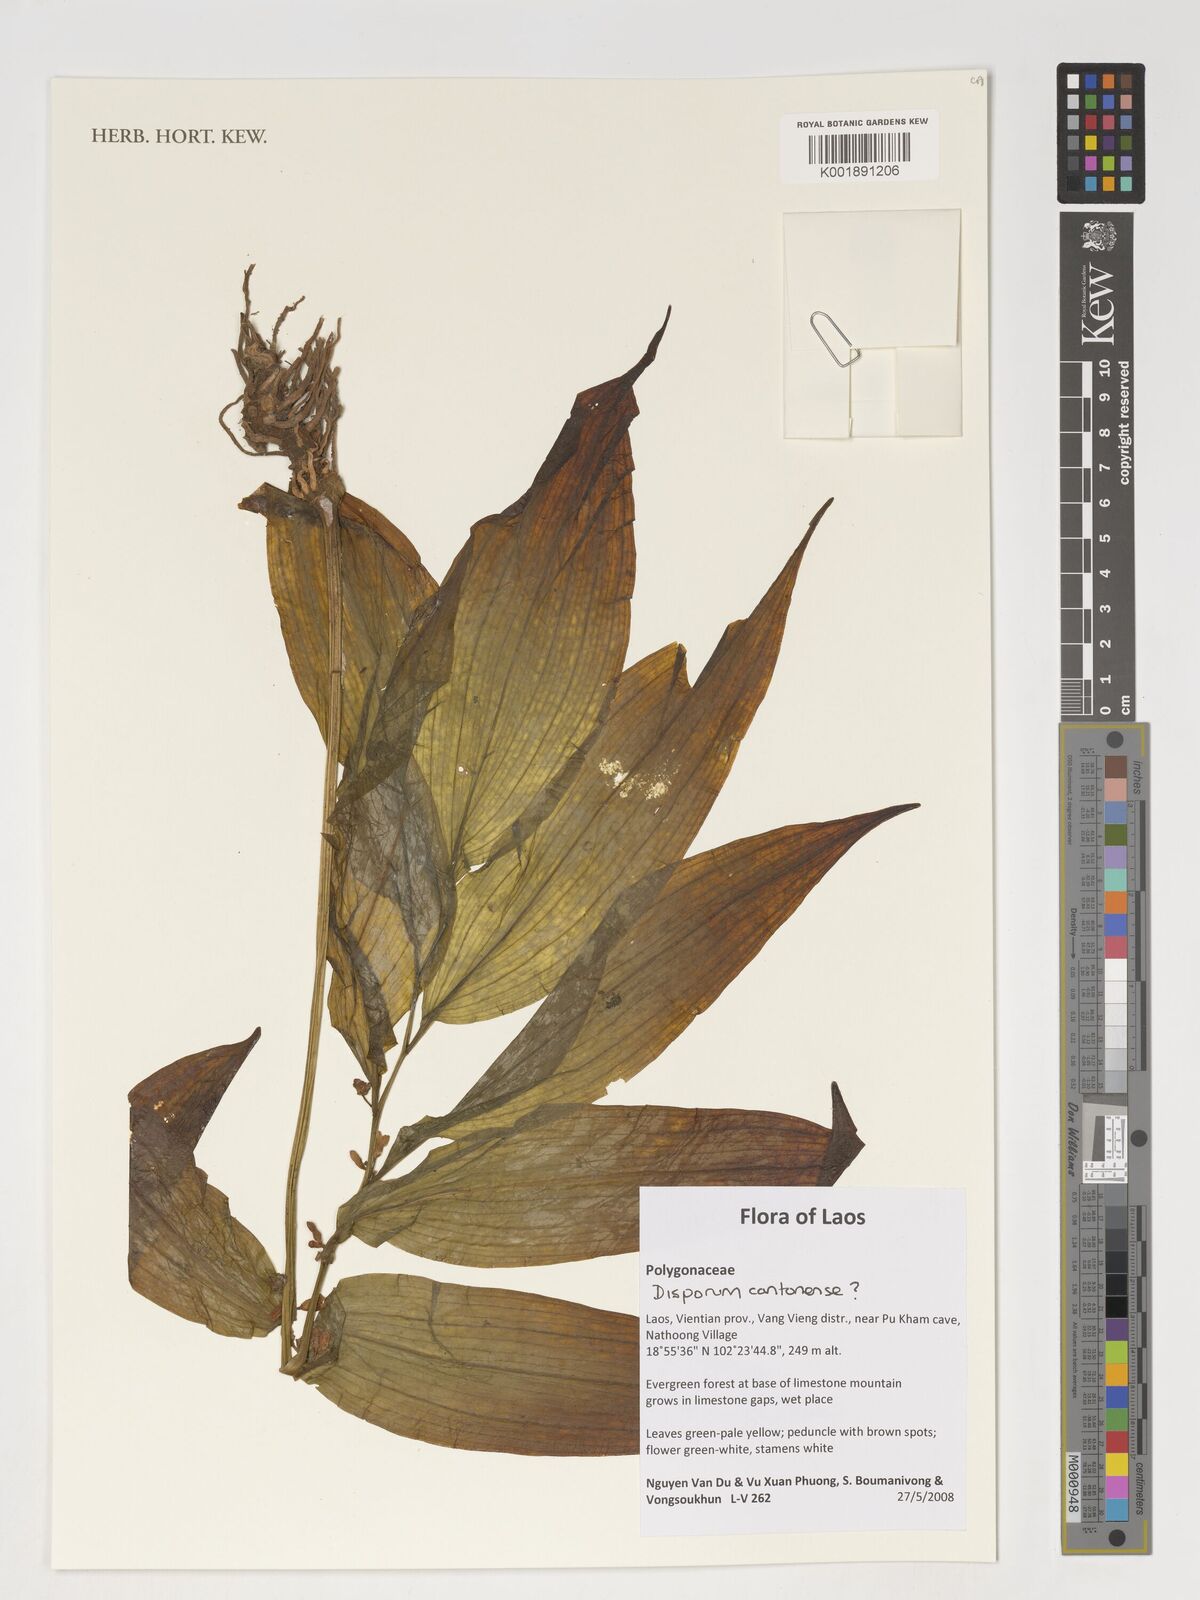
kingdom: Plantae
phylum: Tracheophyta
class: Liliopsida
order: Liliales
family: Colchicaceae
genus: Disporum
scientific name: Disporum
